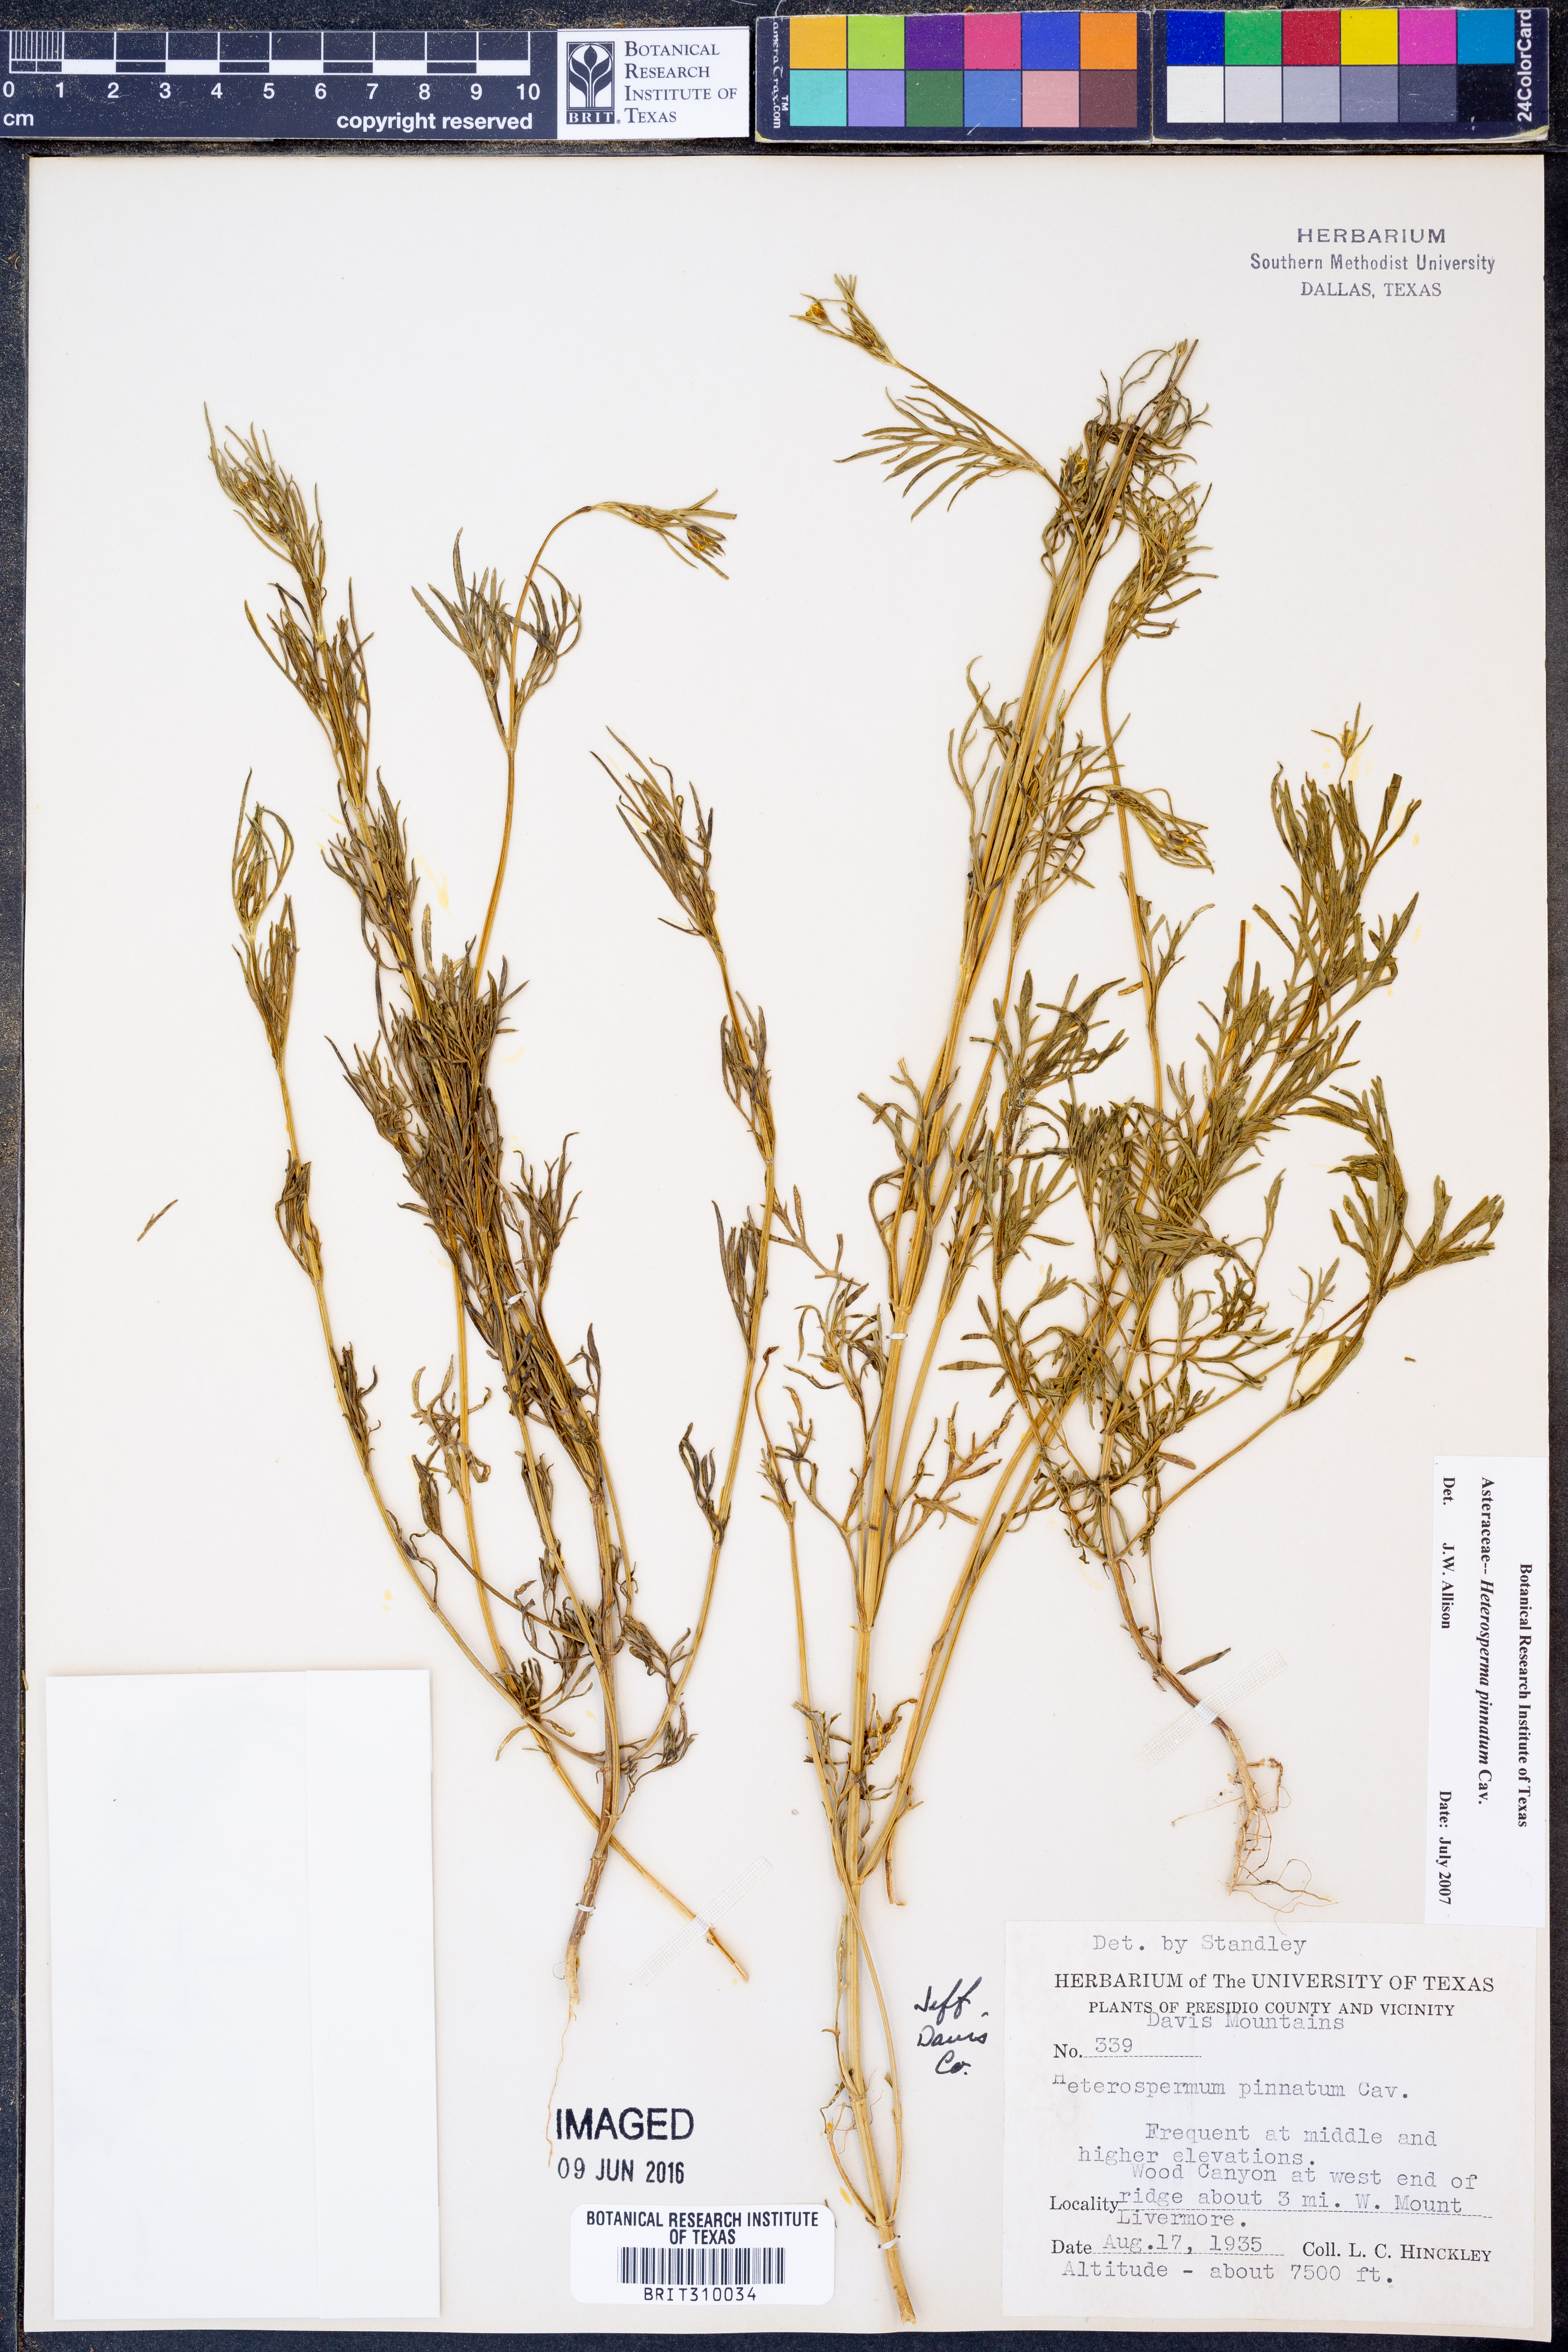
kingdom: Plantae
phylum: Tracheophyta
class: Magnoliopsida
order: Asterales
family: Asteraceae
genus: Heterosperma
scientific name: Heterosperma pinnatum
